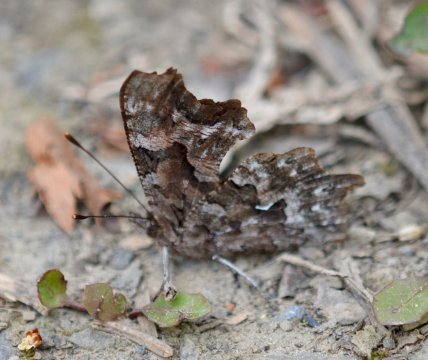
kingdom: Animalia
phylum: Arthropoda
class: Insecta
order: Lepidoptera
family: Nymphalidae
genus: Polygonia
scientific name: Polygonia faunus
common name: Green Comma
